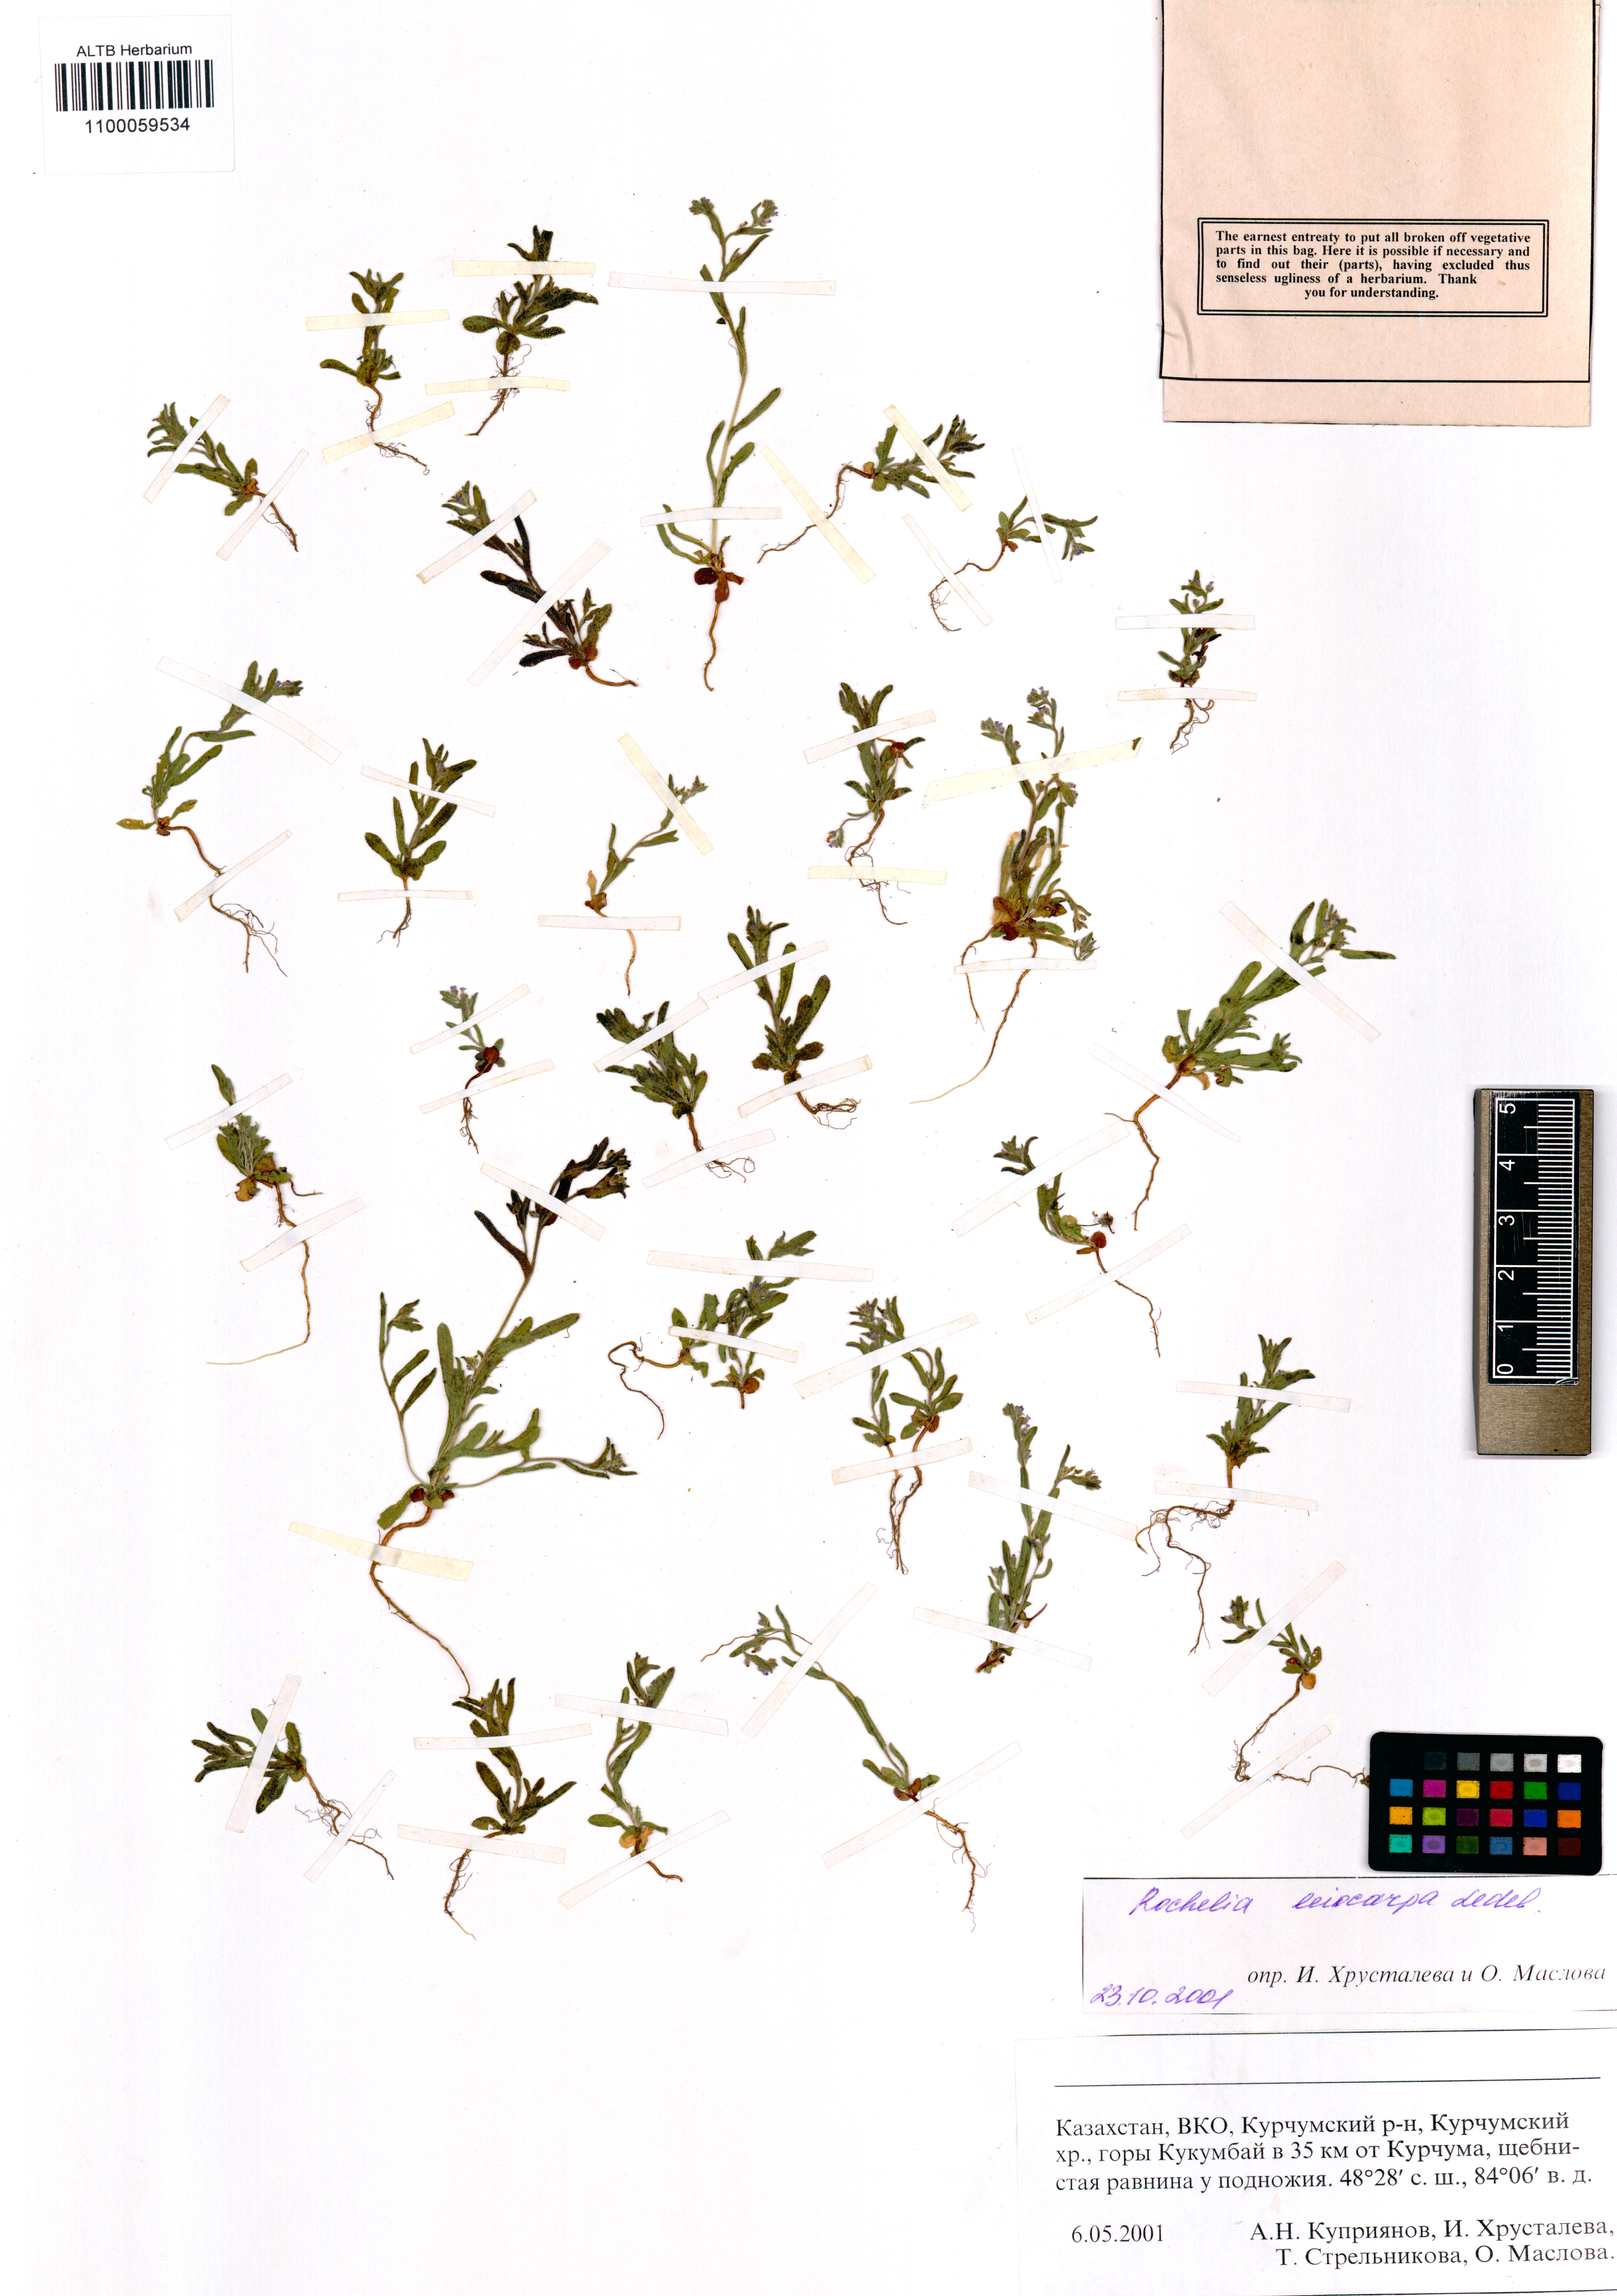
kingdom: Plantae
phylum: Tracheophyta
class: Magnoliopsida
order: Boraginales
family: Boraginaceae
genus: Rochelia
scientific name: Rochelia leiocarpa
